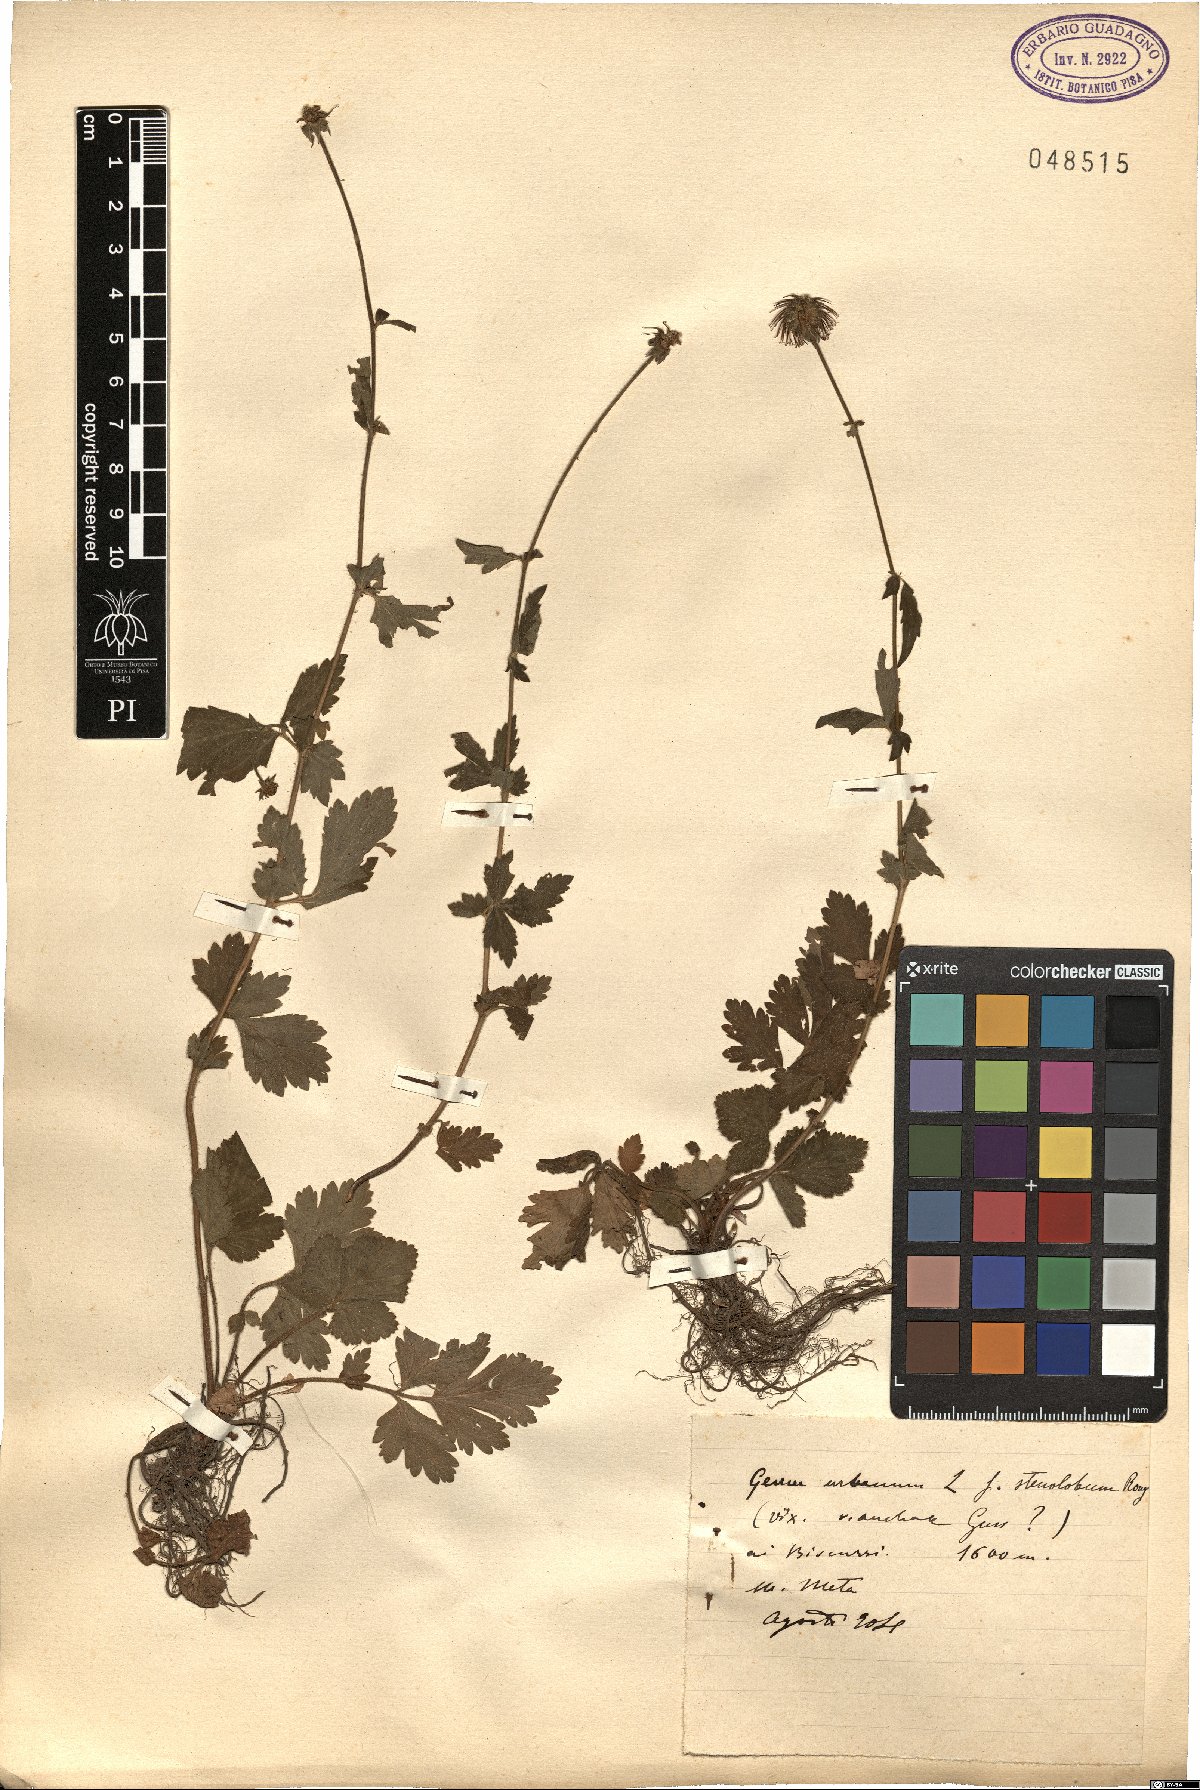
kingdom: Plantae
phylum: Tracheophyta
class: Magnoliopsida
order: Rosales
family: Rosaceae
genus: Geum
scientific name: Geum urbanum
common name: Wood avens
